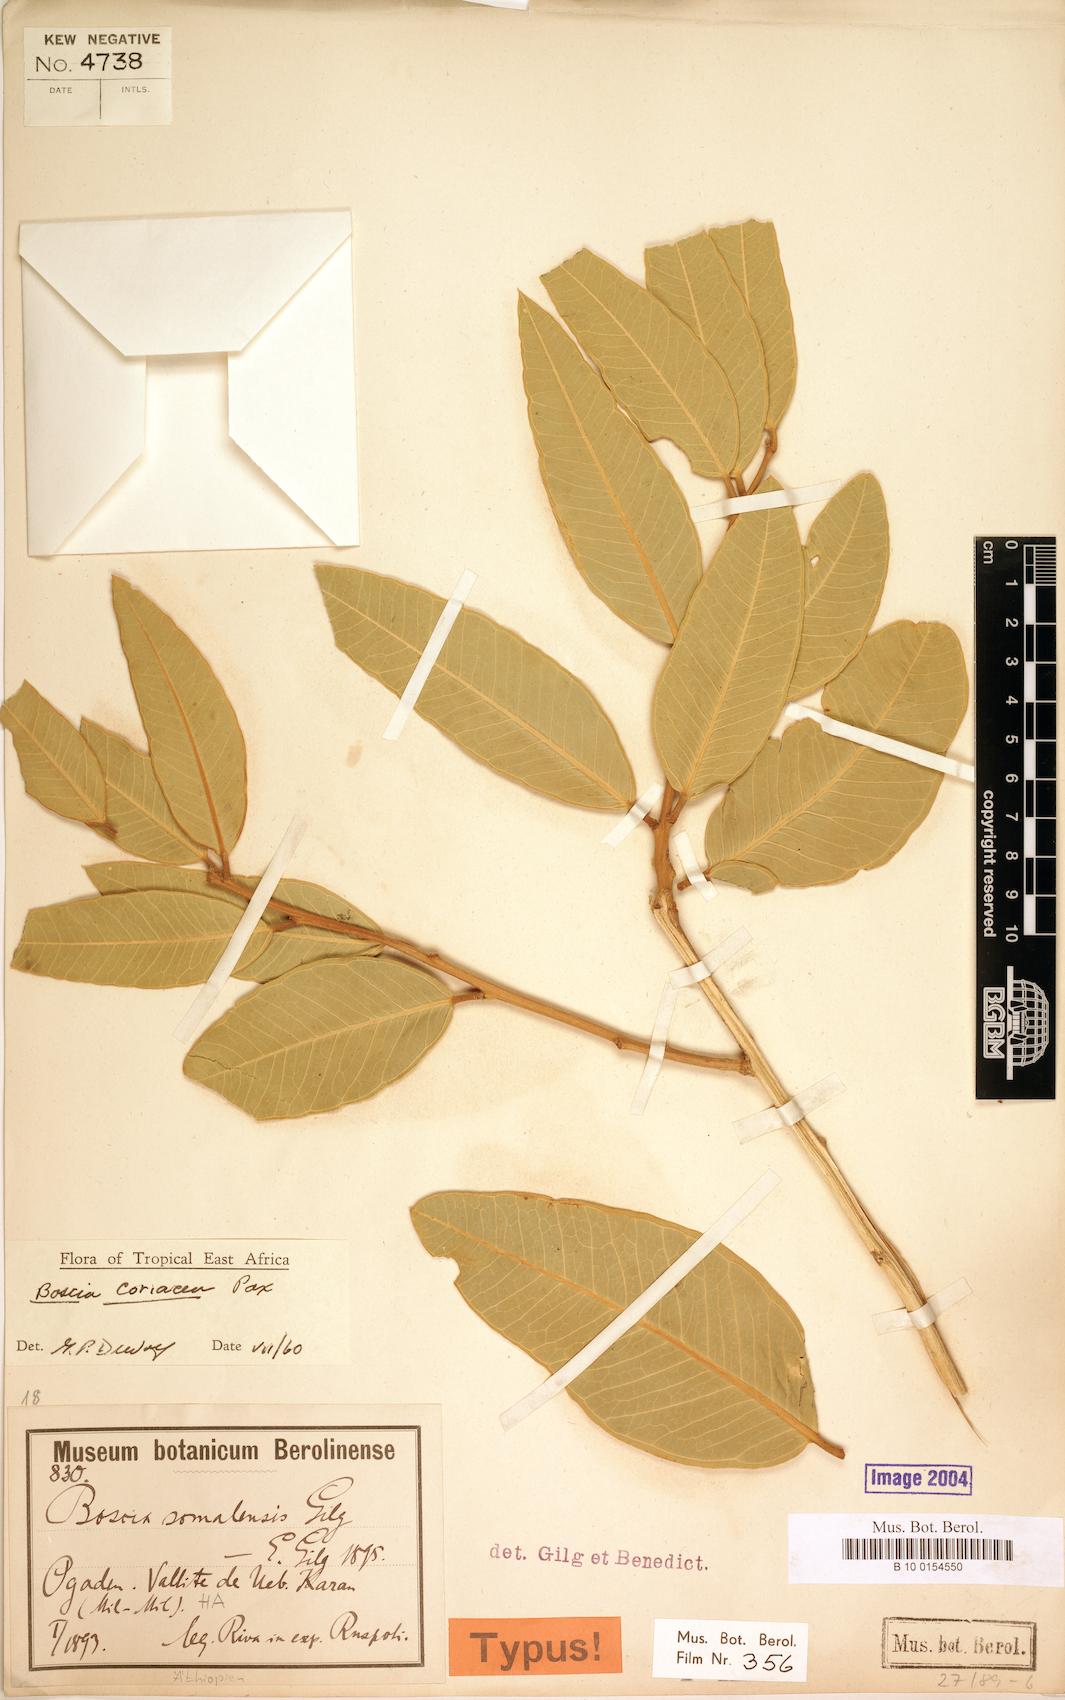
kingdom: Plantae
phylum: Tracheophyta
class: Magnoliopsida
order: Brassicales
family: Capparaceae
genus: Boscia
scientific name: Boscia coriacea
